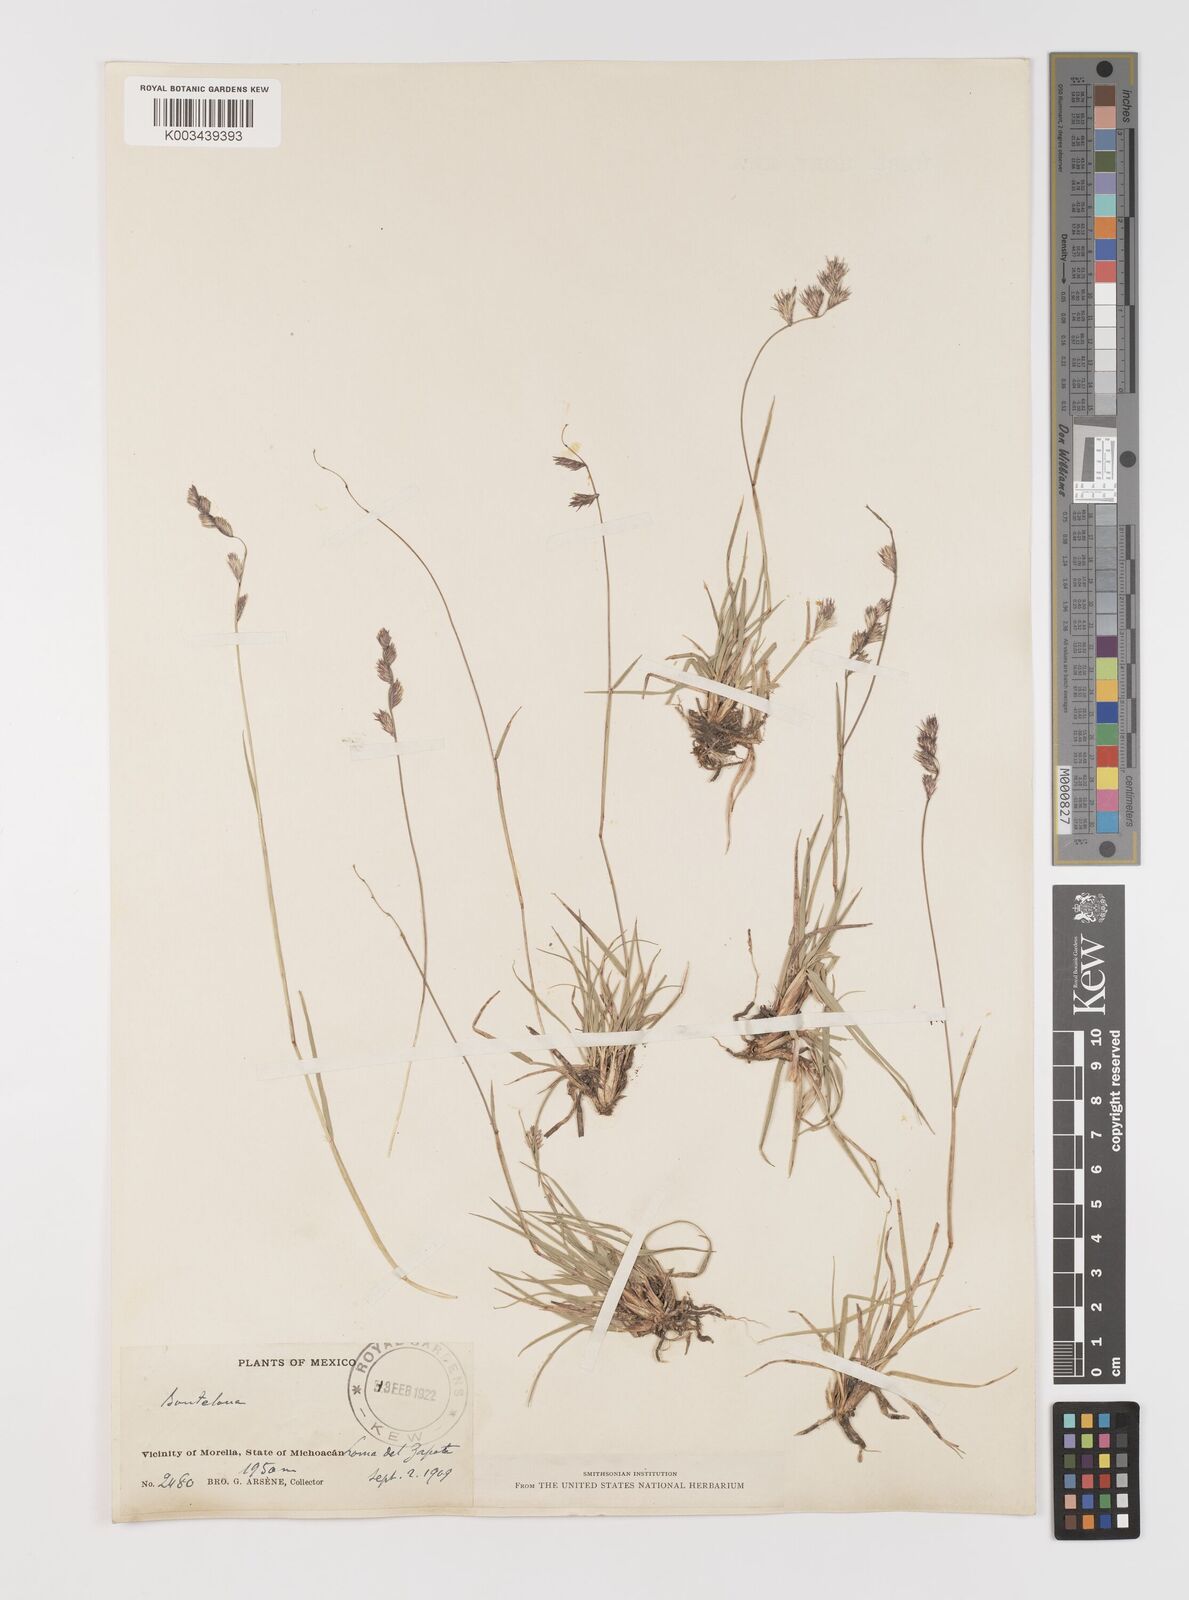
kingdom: Plantae
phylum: Tracheophyta
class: Liliopsida
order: Poales
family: Poaceae
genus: Bouteloua
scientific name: Bouteloua chondrosioides
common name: Sprucetop grama
